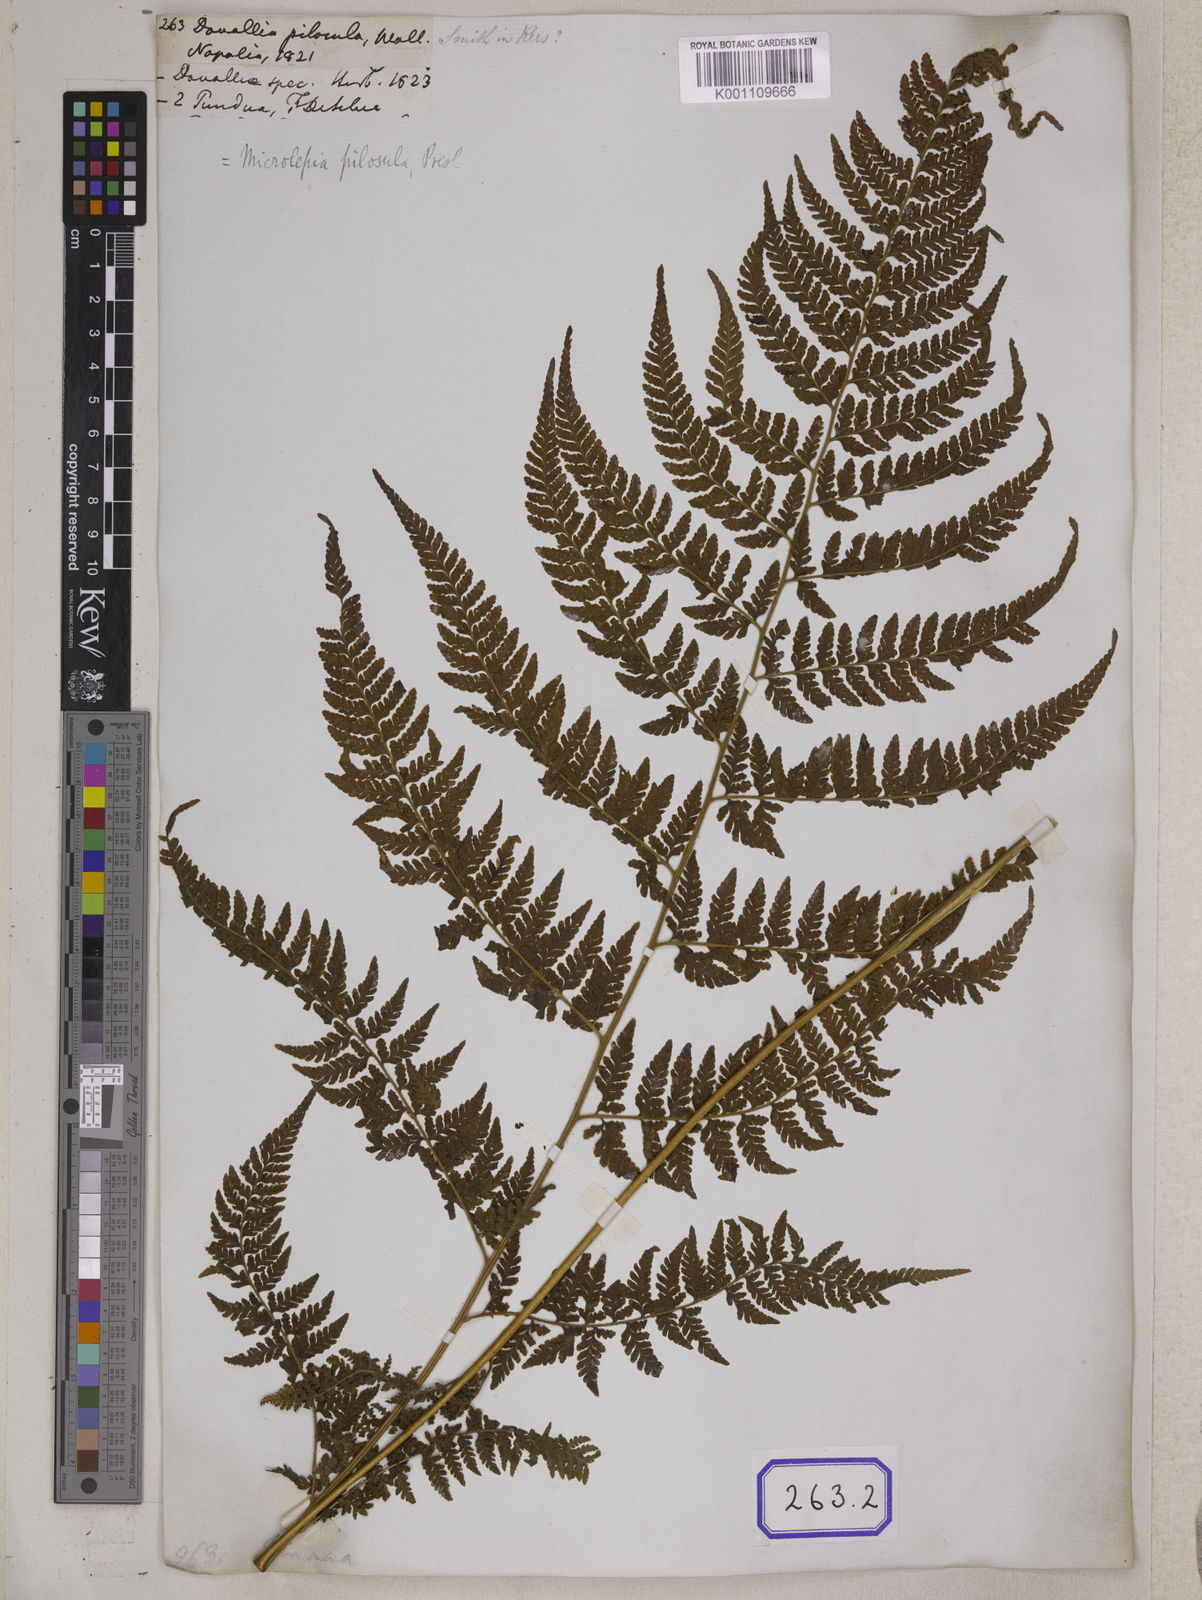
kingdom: Plantae
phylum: Tracheophyta
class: Polypodiopsida
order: Polypodiales
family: Dennstaedtiaceae
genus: Microlepia
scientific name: Microlepia speluncae
